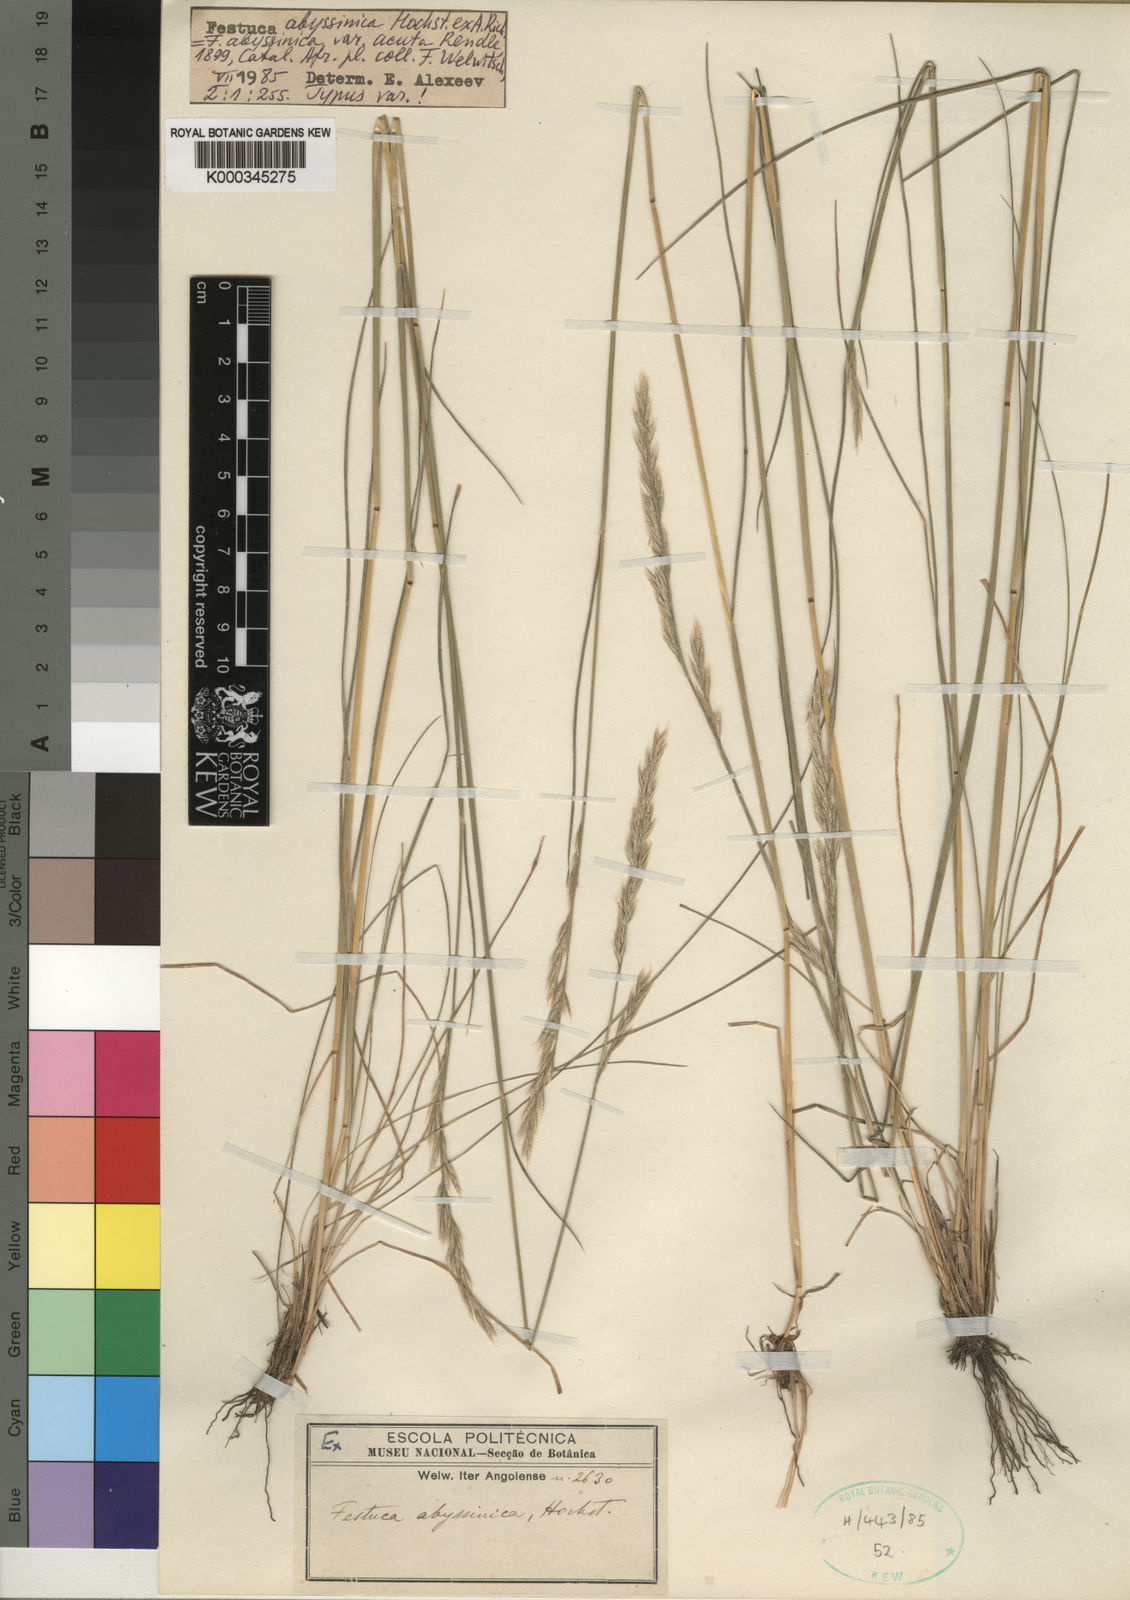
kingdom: Plantae
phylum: Tracheophyta
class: Liliopsida
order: Poales
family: Poaceae
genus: Festuca
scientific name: Festuca abyssinica
